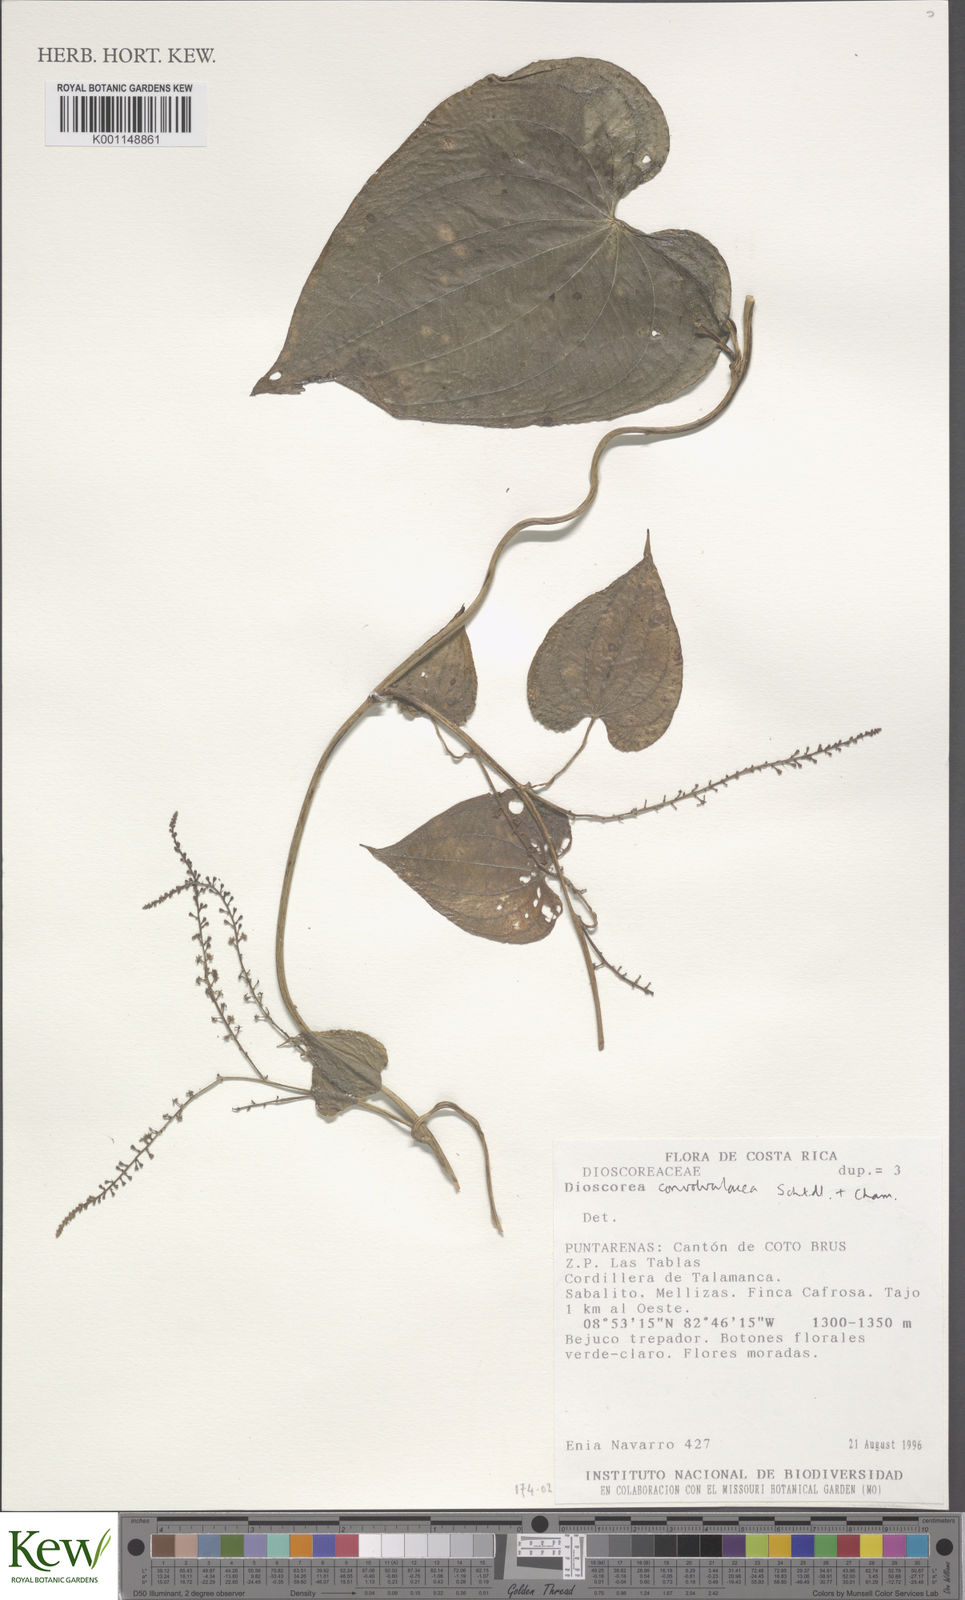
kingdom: Plantae
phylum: Tracheophyta
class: Liliopsida
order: Dioscoreales
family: Dioscoreaceae
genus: Dioscorea
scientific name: Dioscorea convolvulacea
